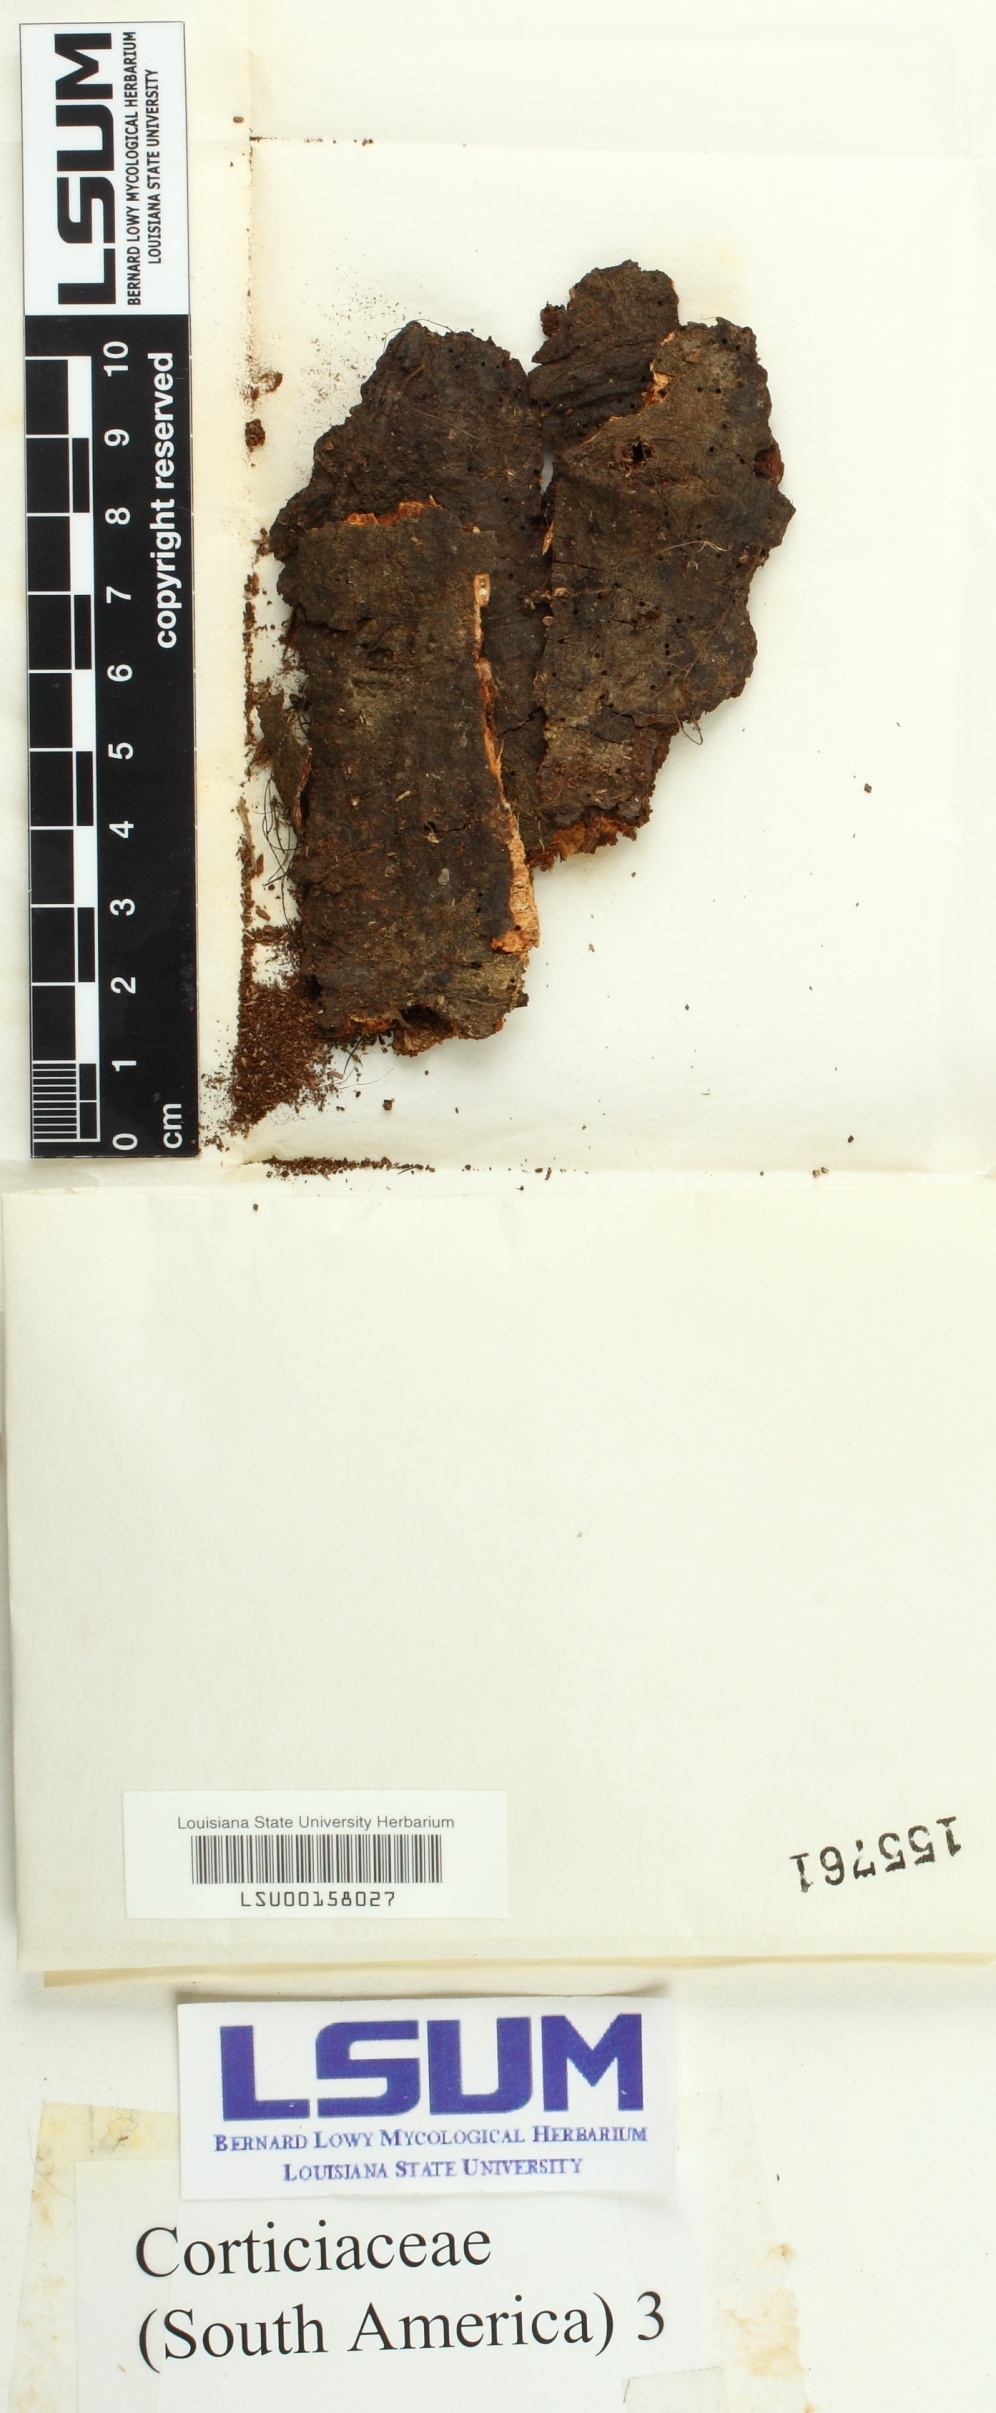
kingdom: Fungi
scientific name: Fungi
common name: Fungi
